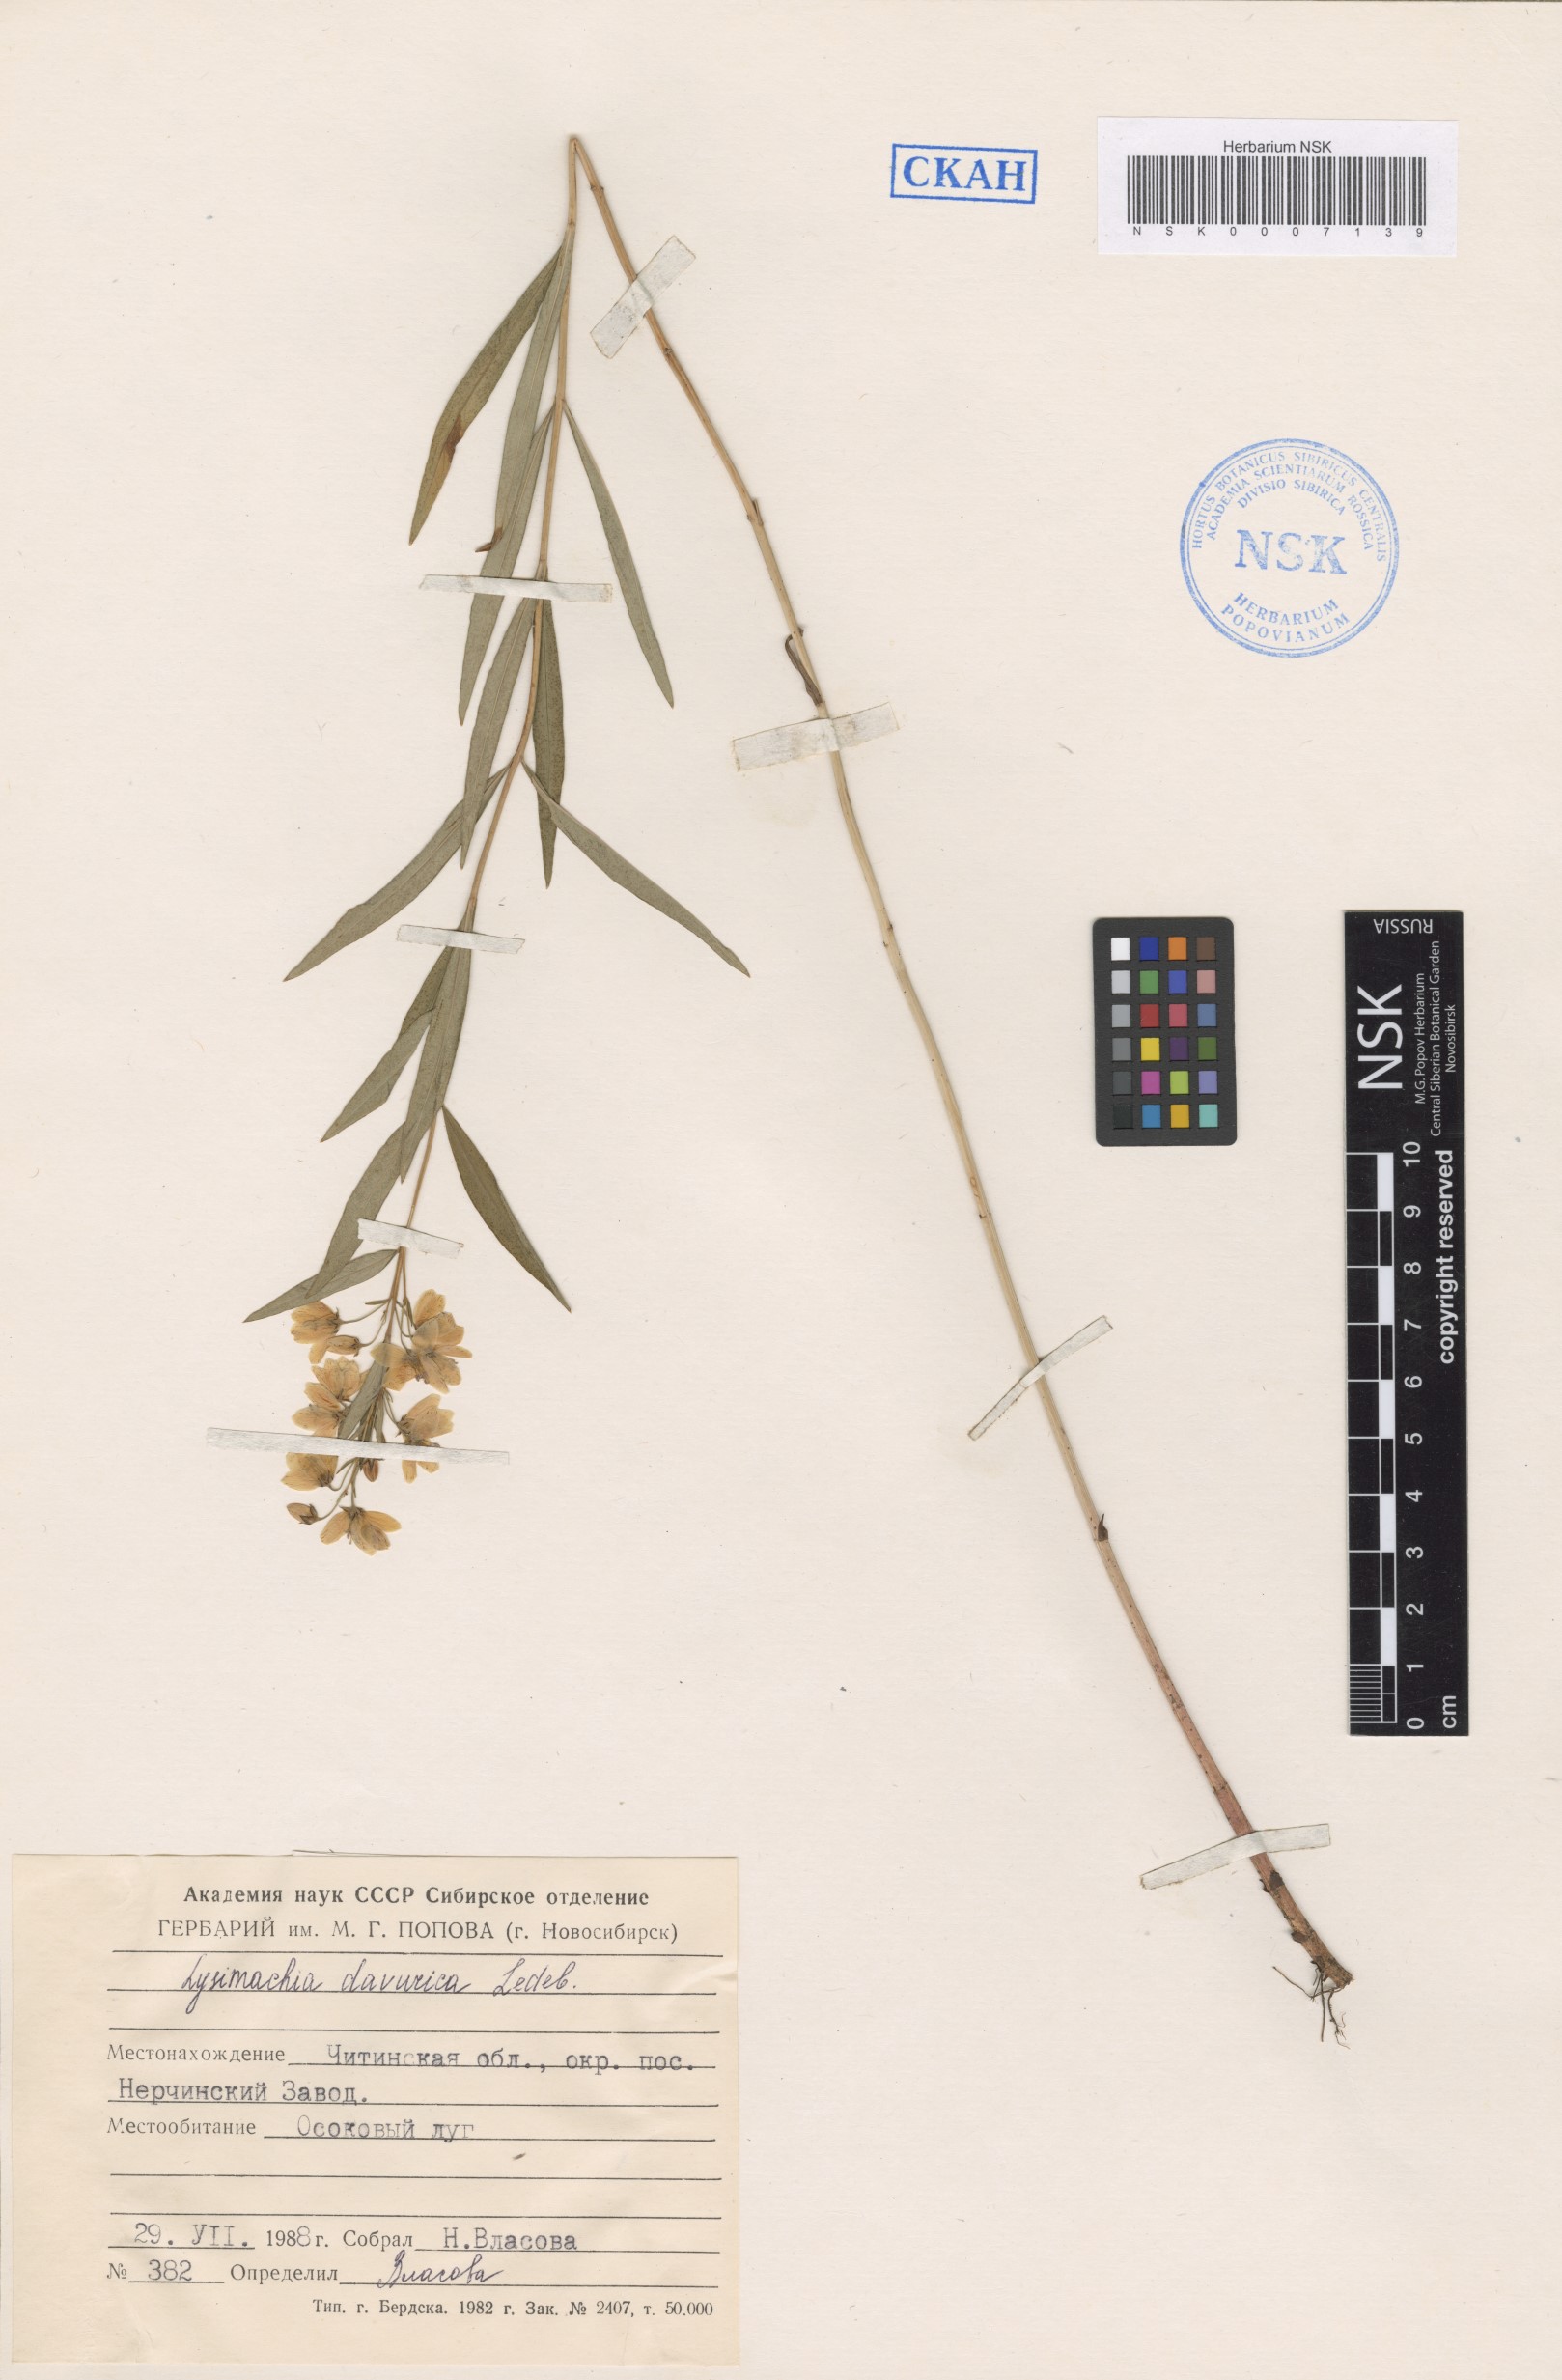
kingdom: Plantae
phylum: Tracheophyta
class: Magnoliopsida
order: Ericales
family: Primulaceae
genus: Lysimachia
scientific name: Lysimachia davurica
